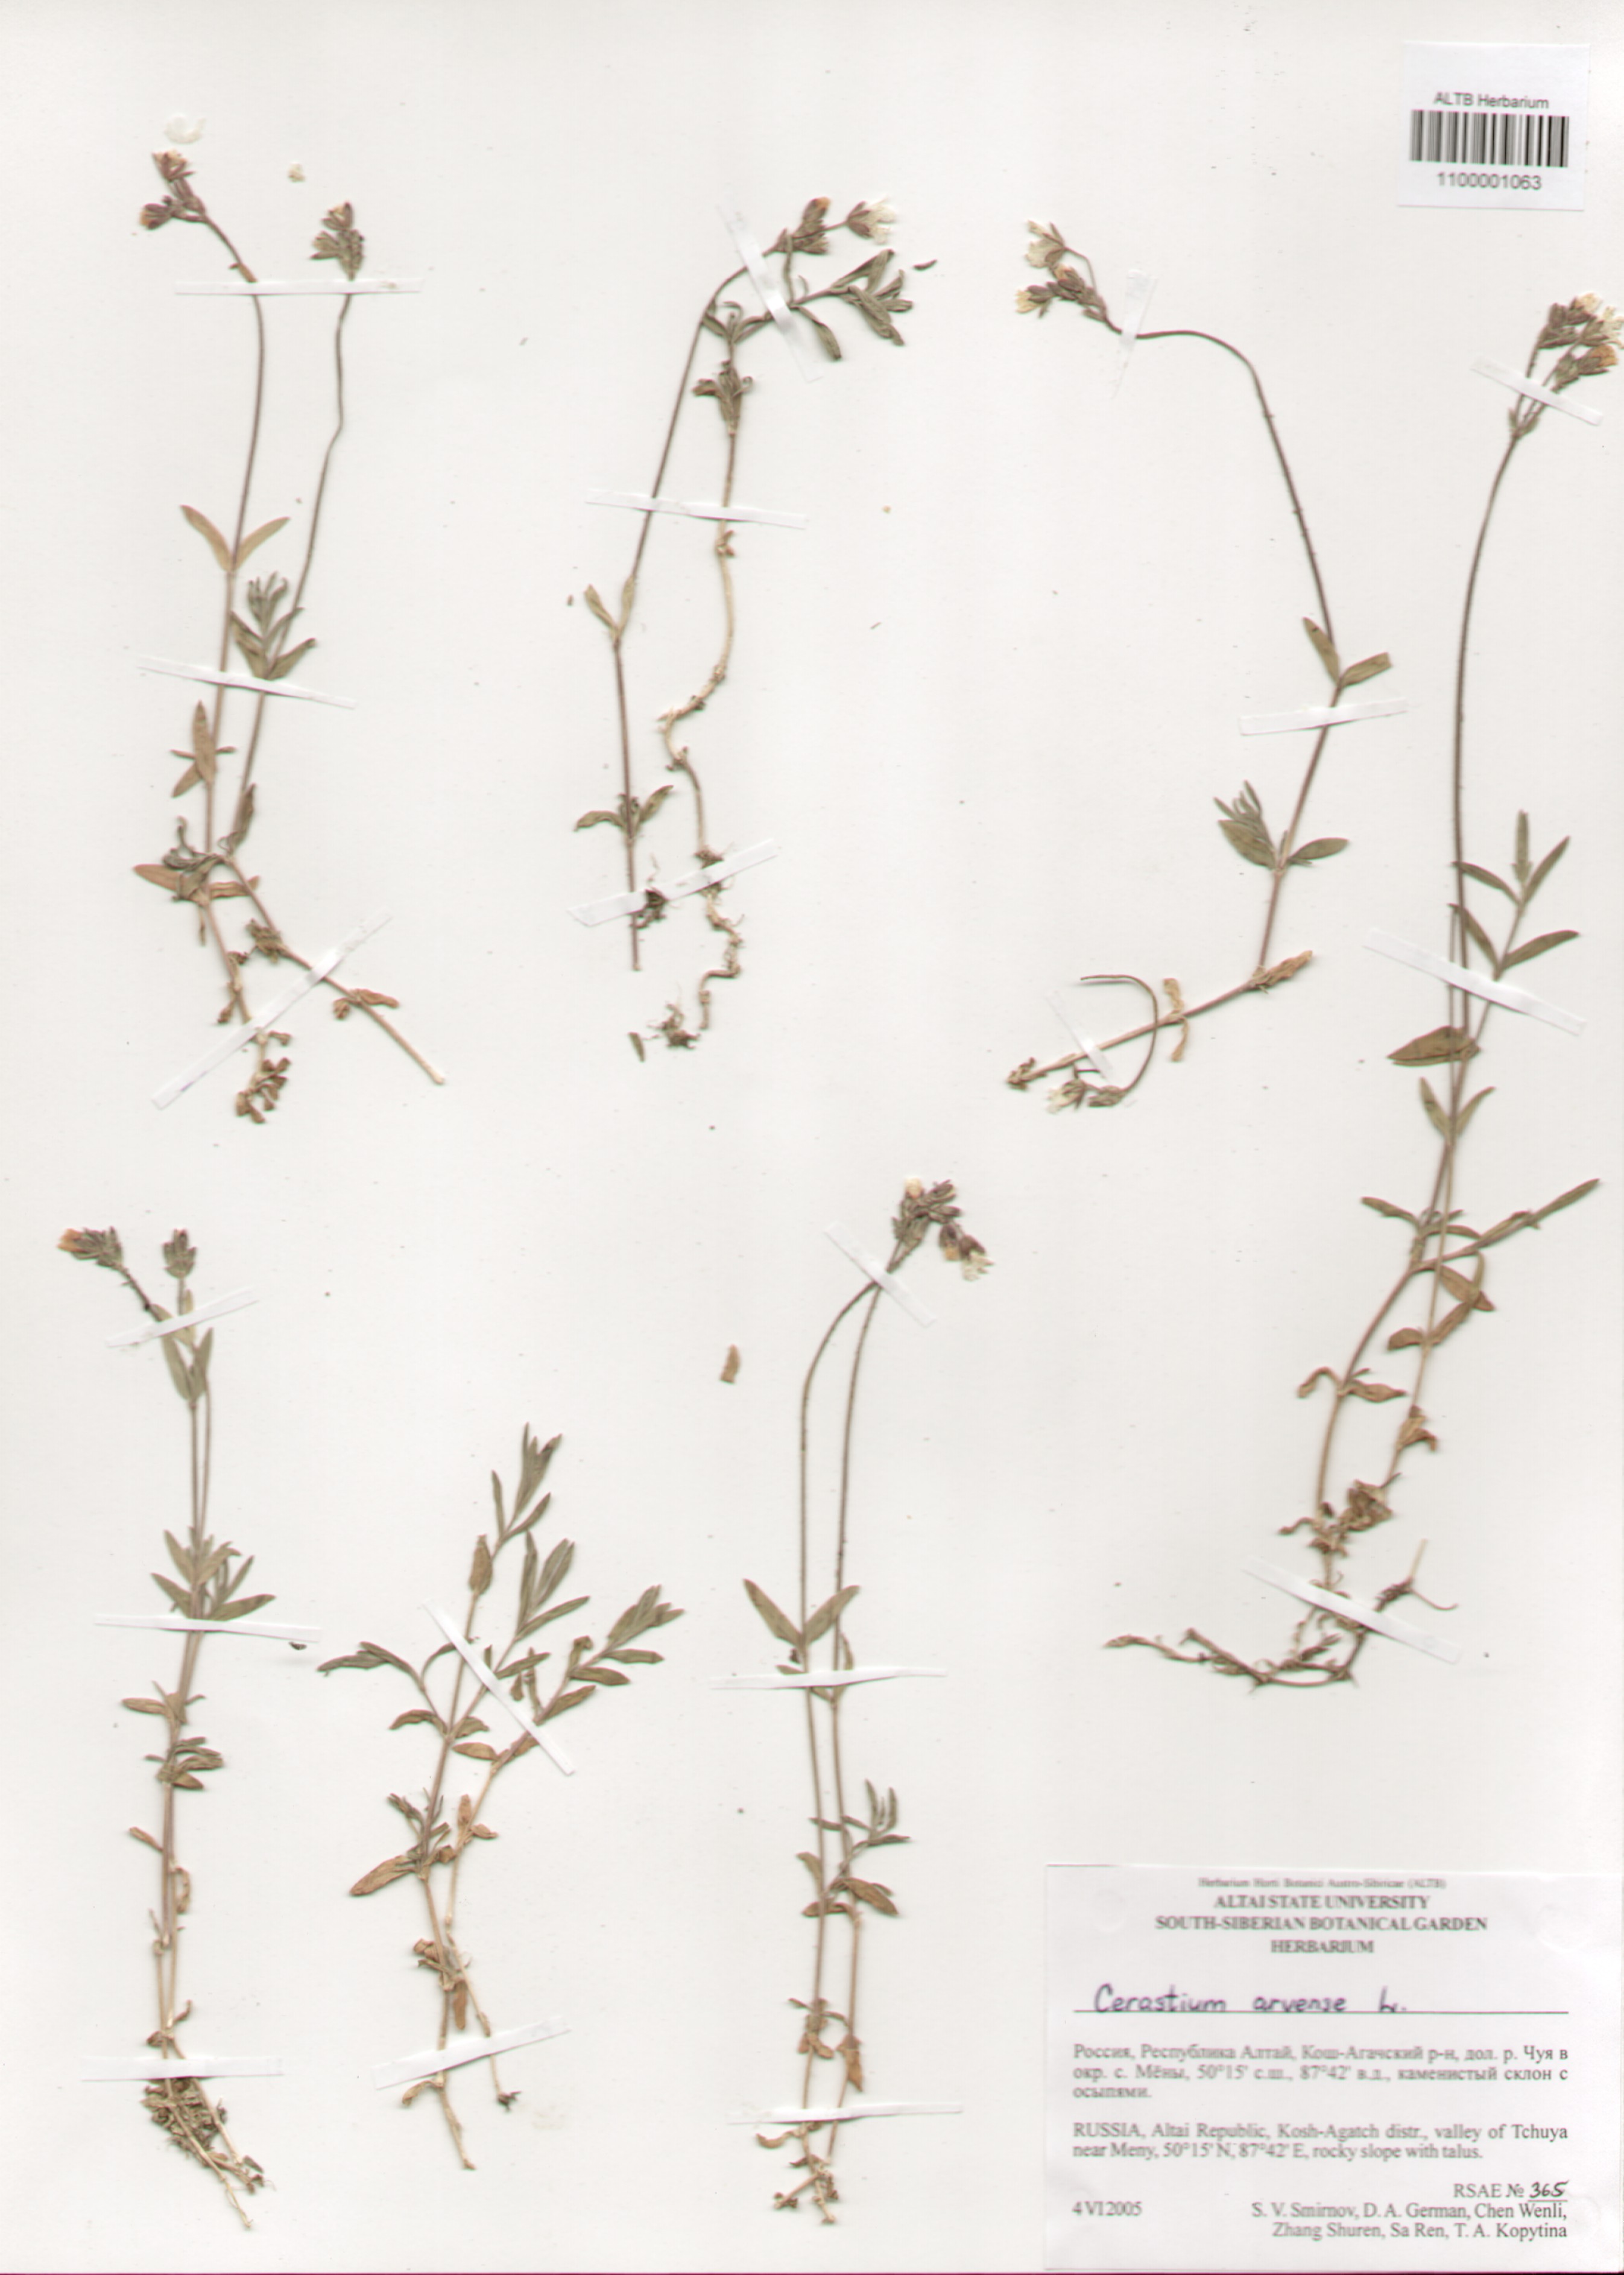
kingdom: Plantae
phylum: Tracheophyta
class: Magnoliopsida
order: Caryophyllales
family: Caryophyllaceae
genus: Cerastium
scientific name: Cerastium arvense
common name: Field mouse-ear
